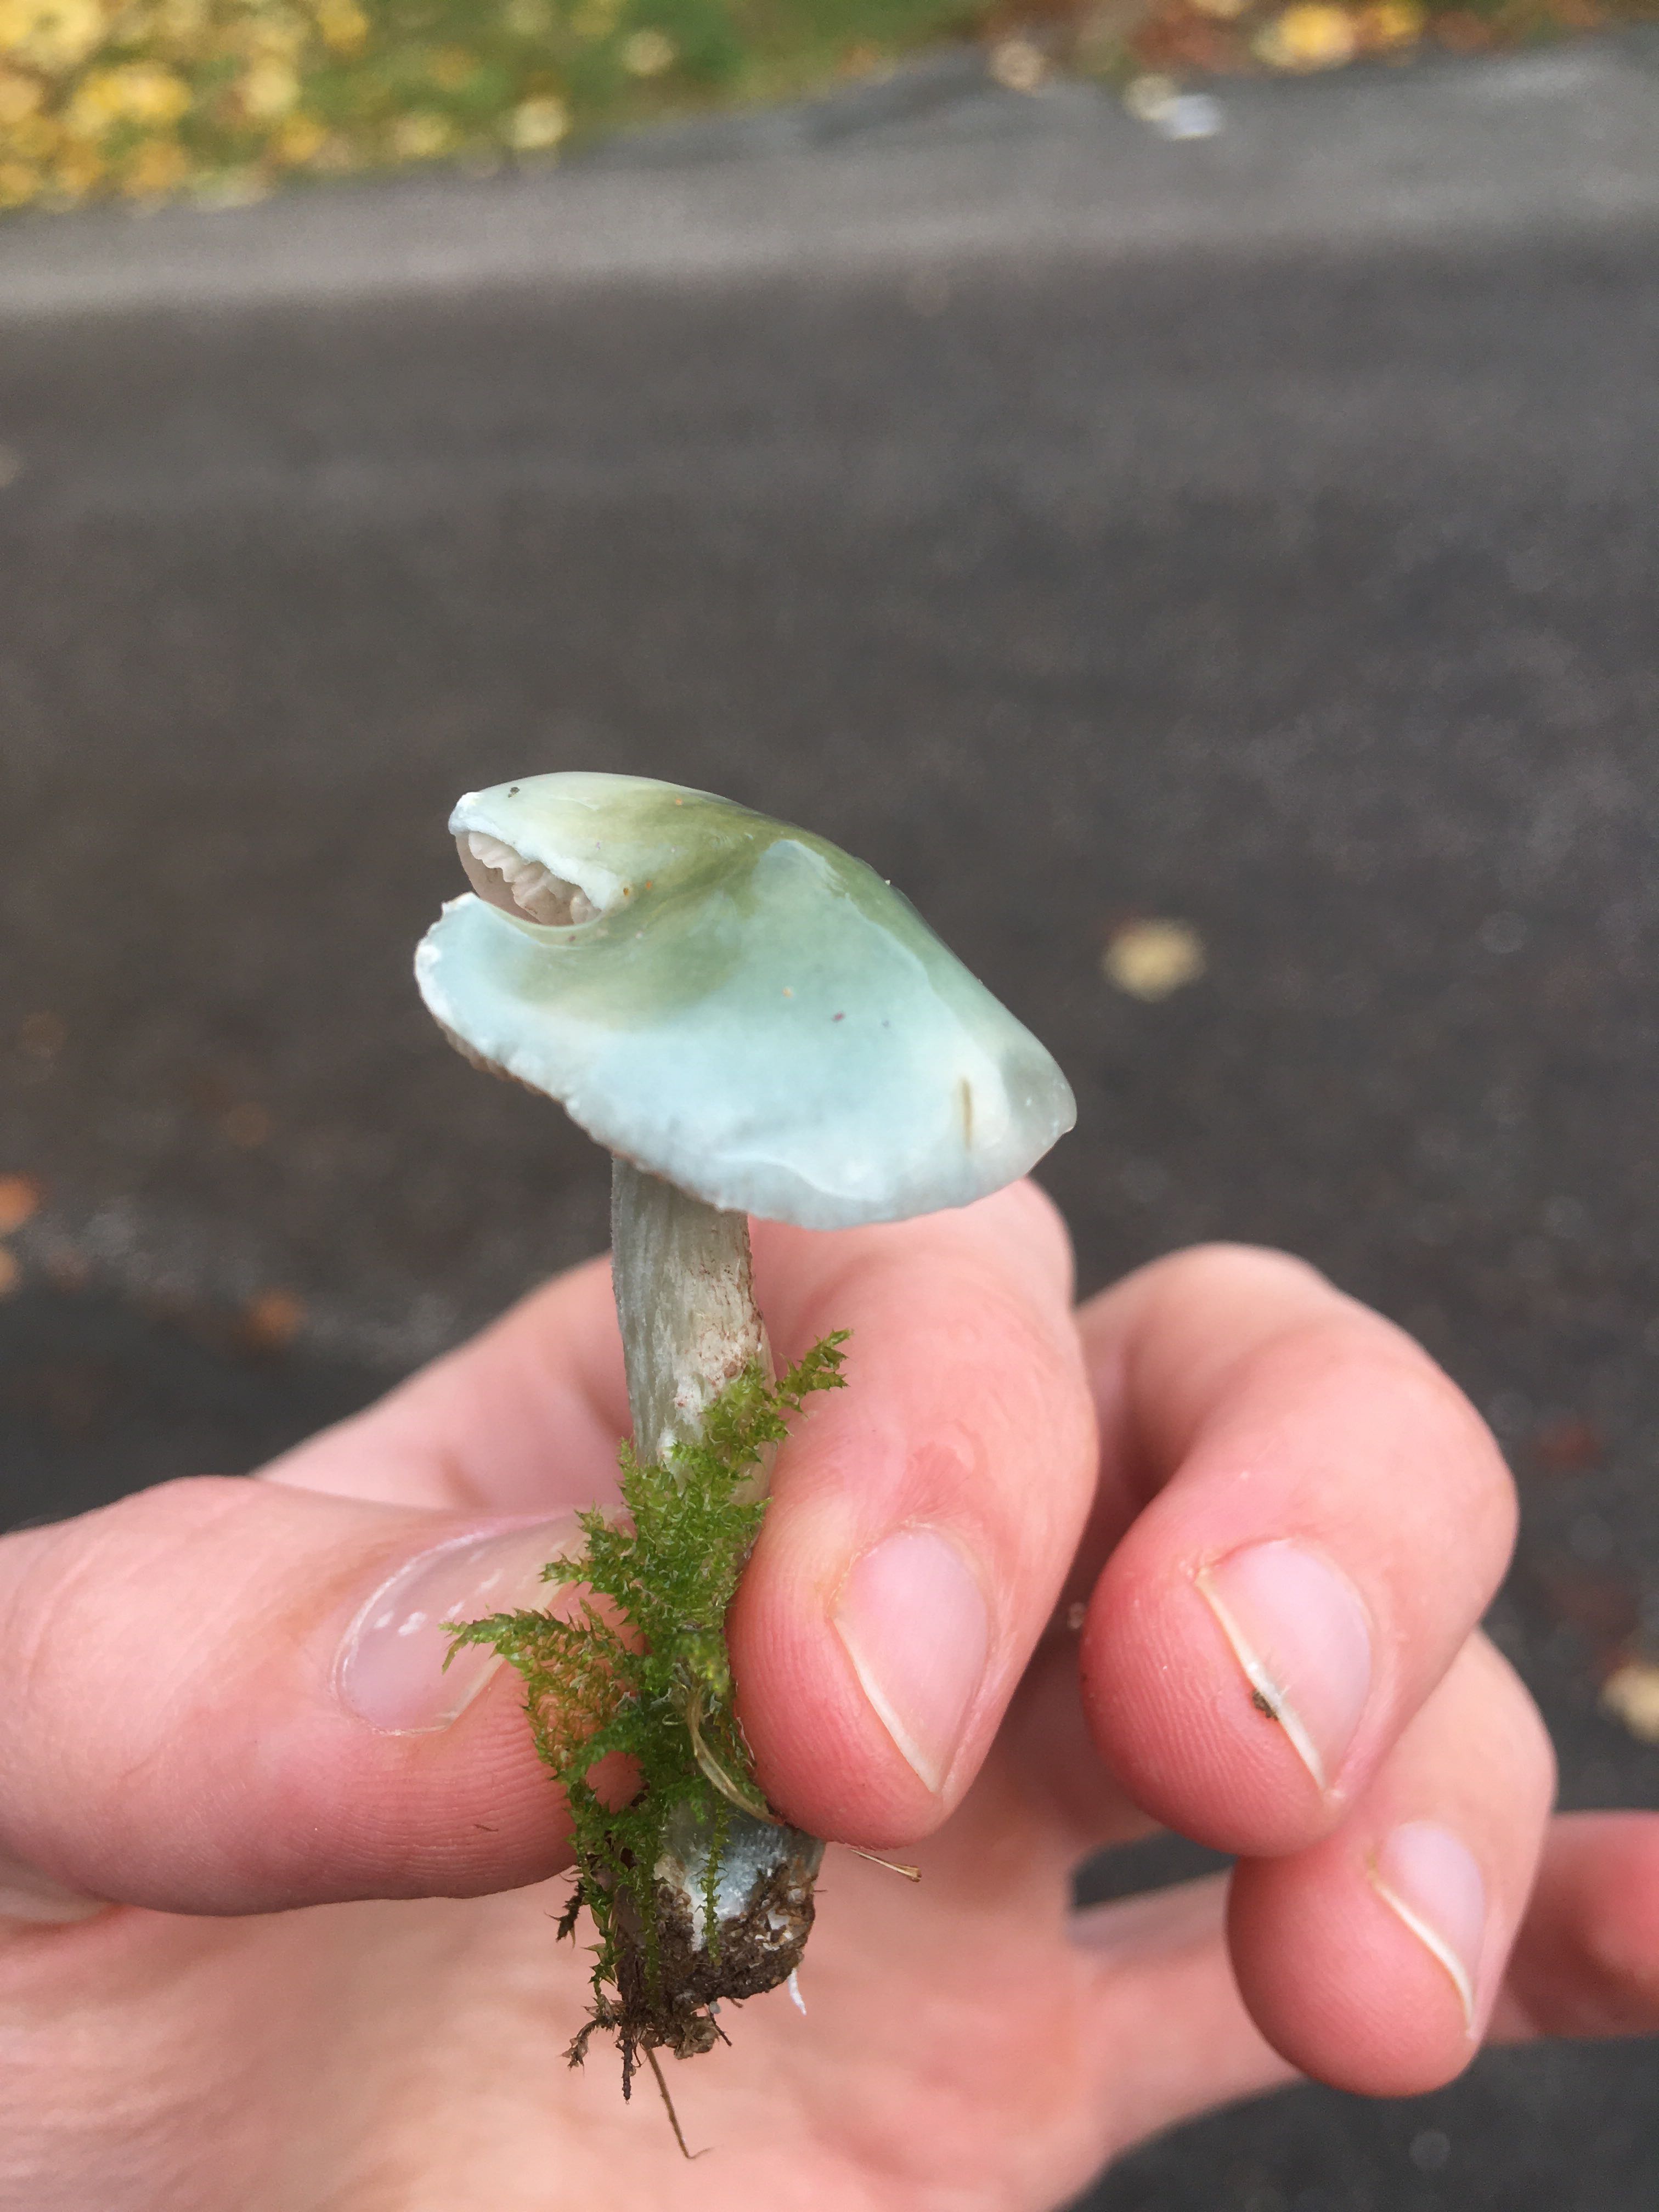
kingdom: Fungi
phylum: Basidiomycota
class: Agaricomycetes
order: Agaricales
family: Strophariaceae
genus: Stropharia
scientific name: Stropharia cyanea
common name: blågrøn bredblad
